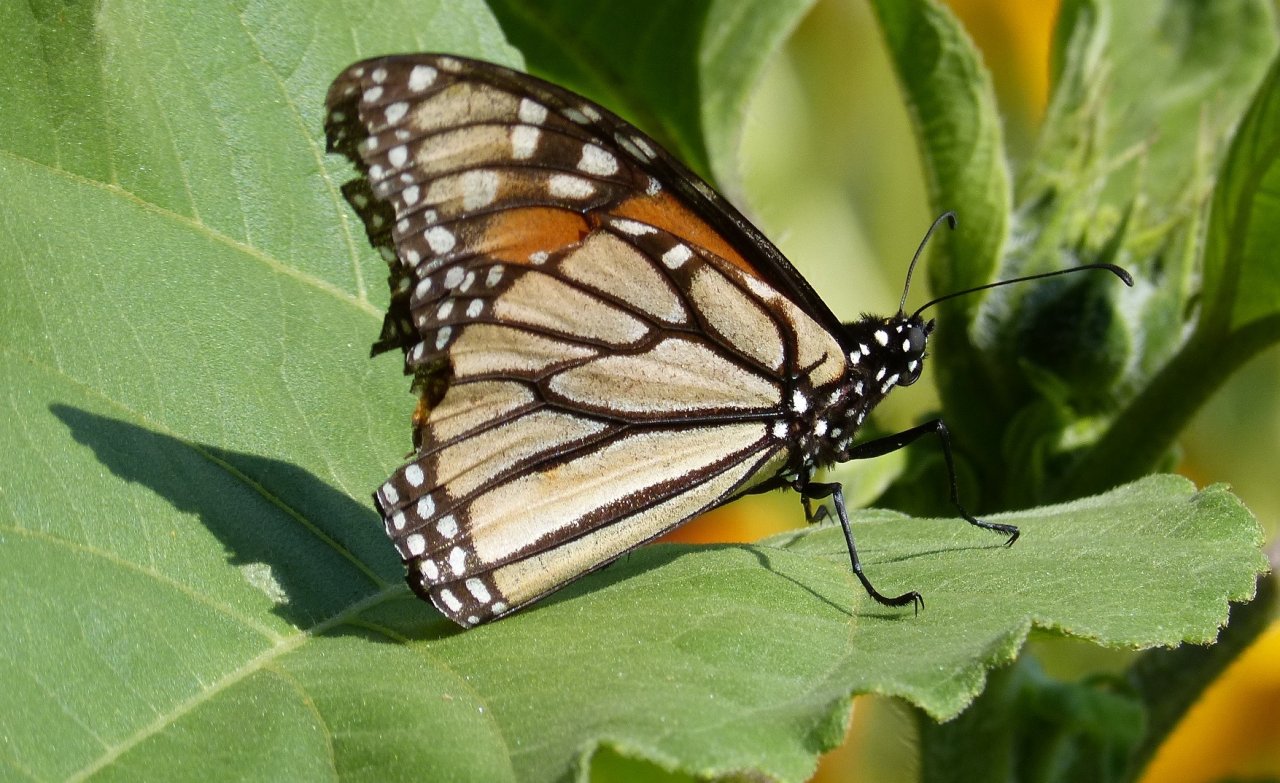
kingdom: Animalia
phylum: Arthropoda
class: Insecta
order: Lepidoptera
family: Nymphalidae
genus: Danaus
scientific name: Danaus plexippus
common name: Monarch
